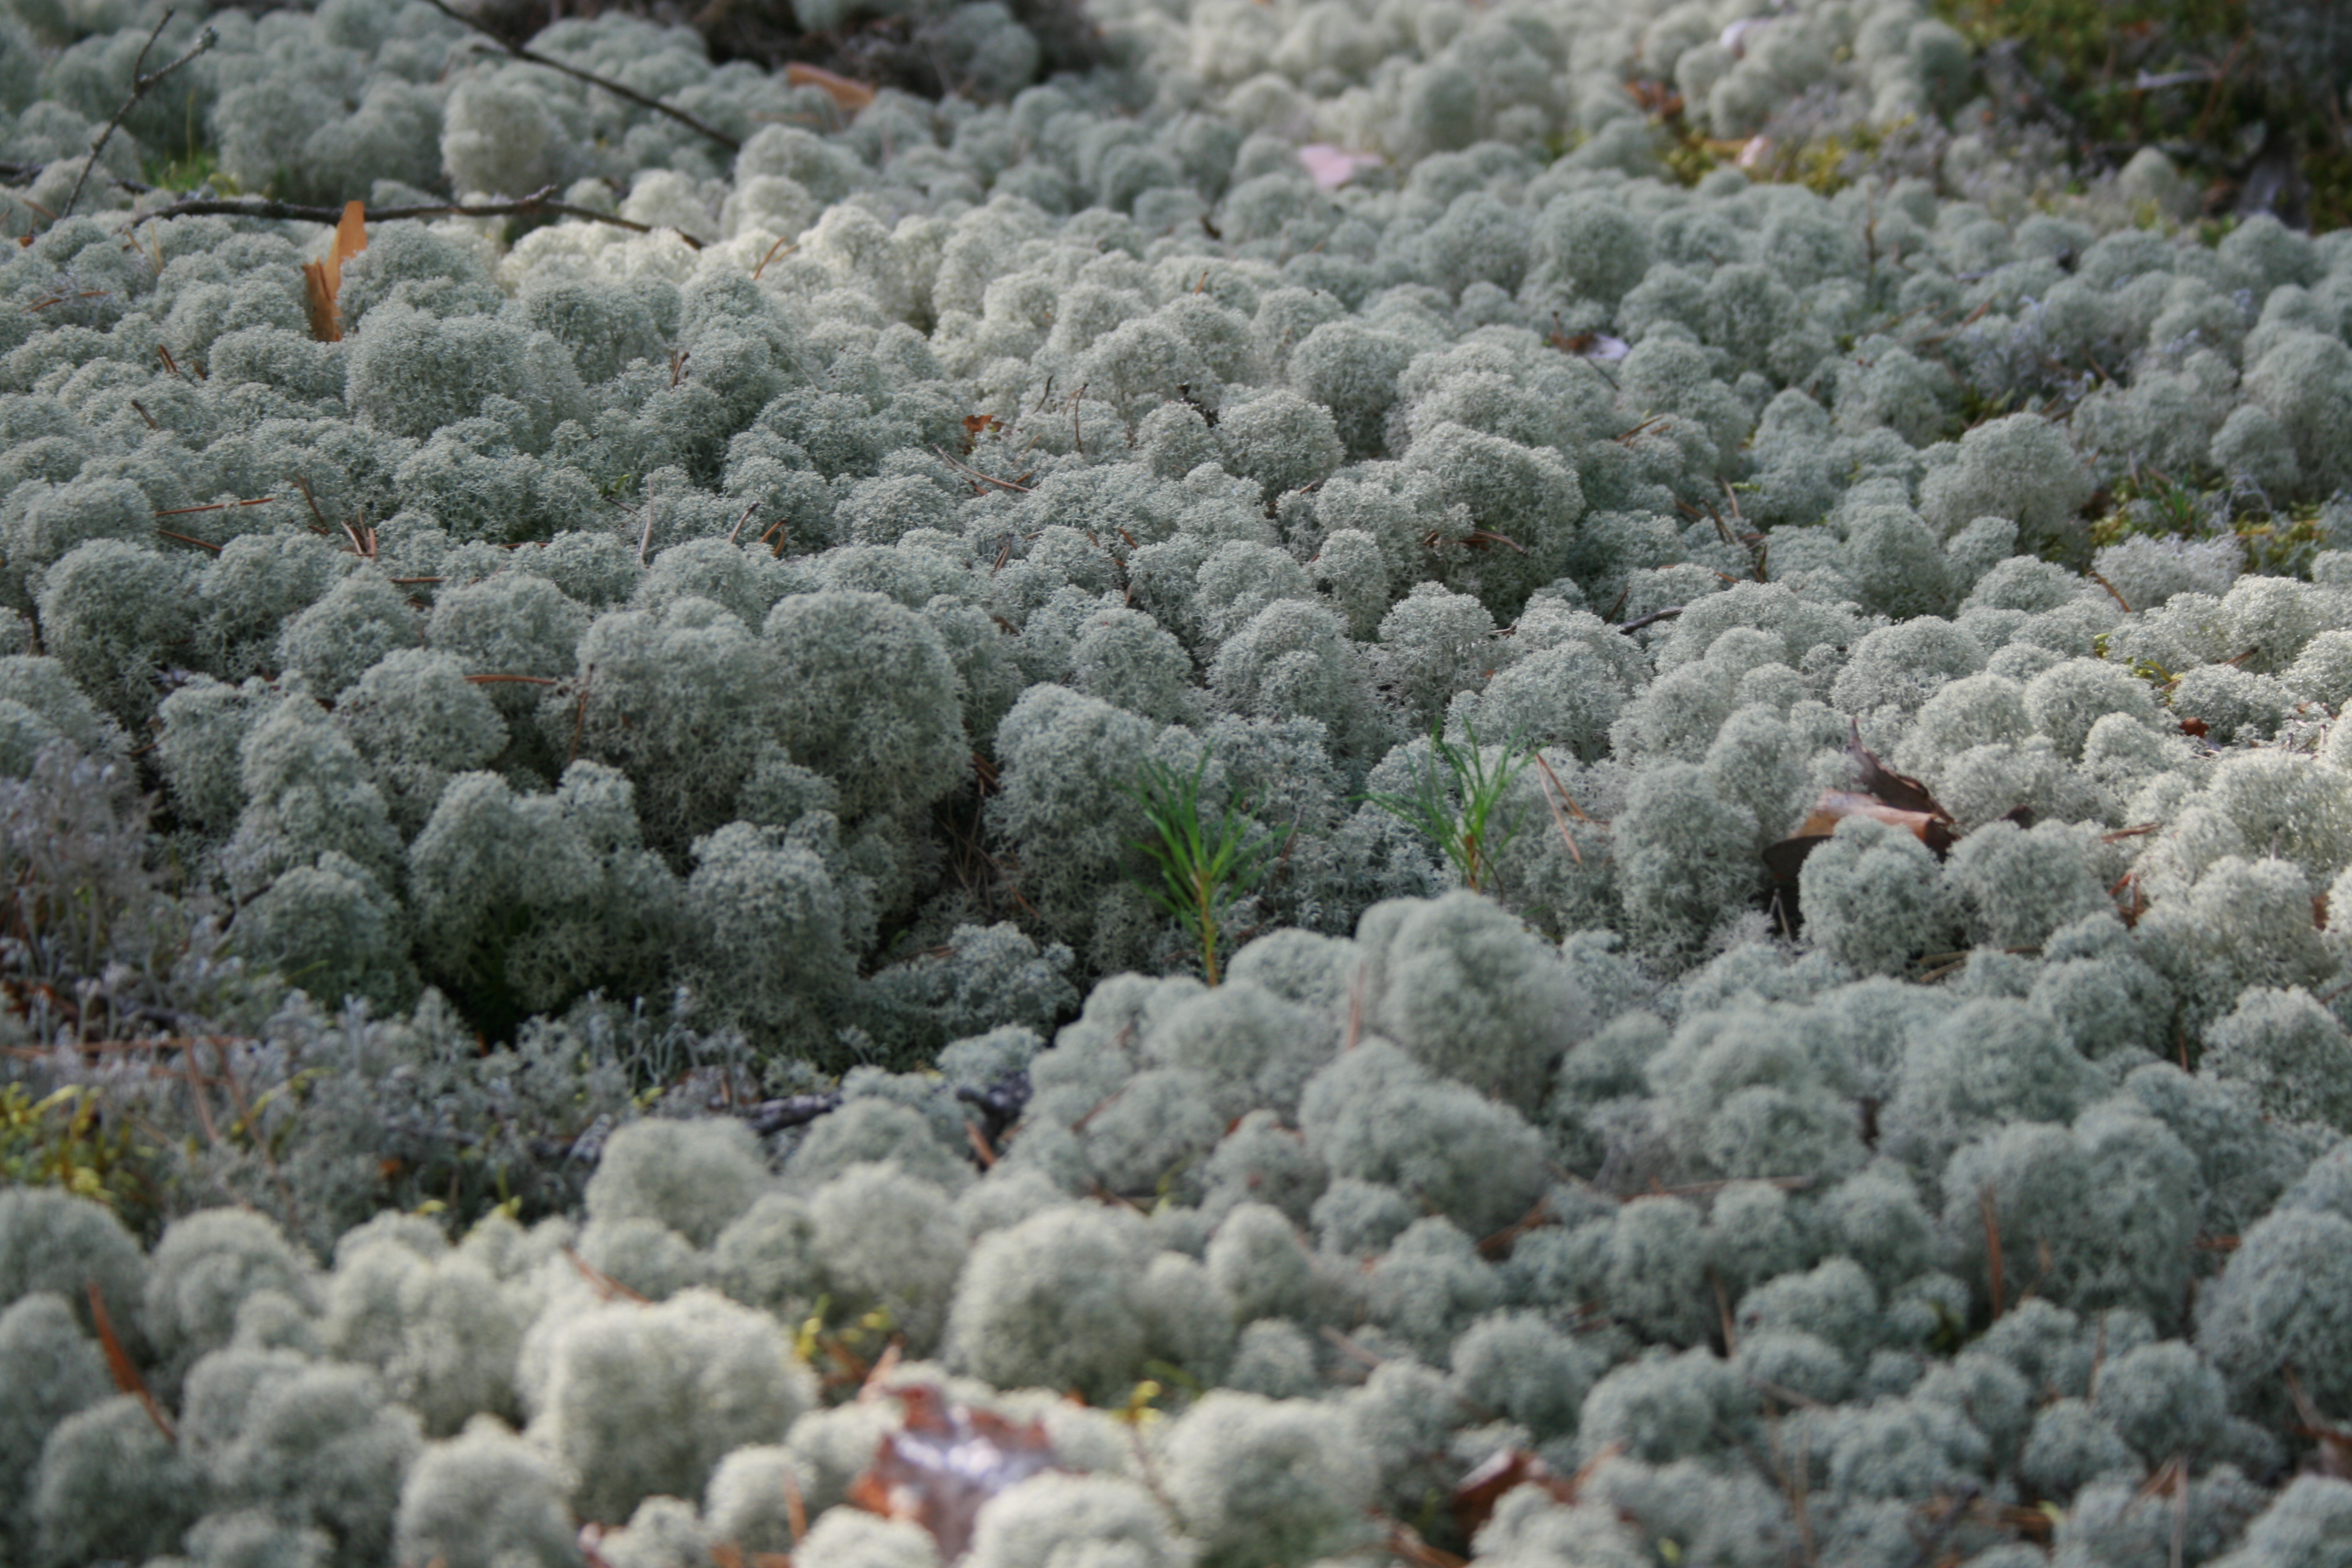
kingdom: Fungi
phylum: Ascomycota
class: Lecanoromycetes
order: Lecanorales
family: Cladoniaceae
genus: Cladonia
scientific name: Cladonia stellaris
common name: Star-tipped reindeer lichen
